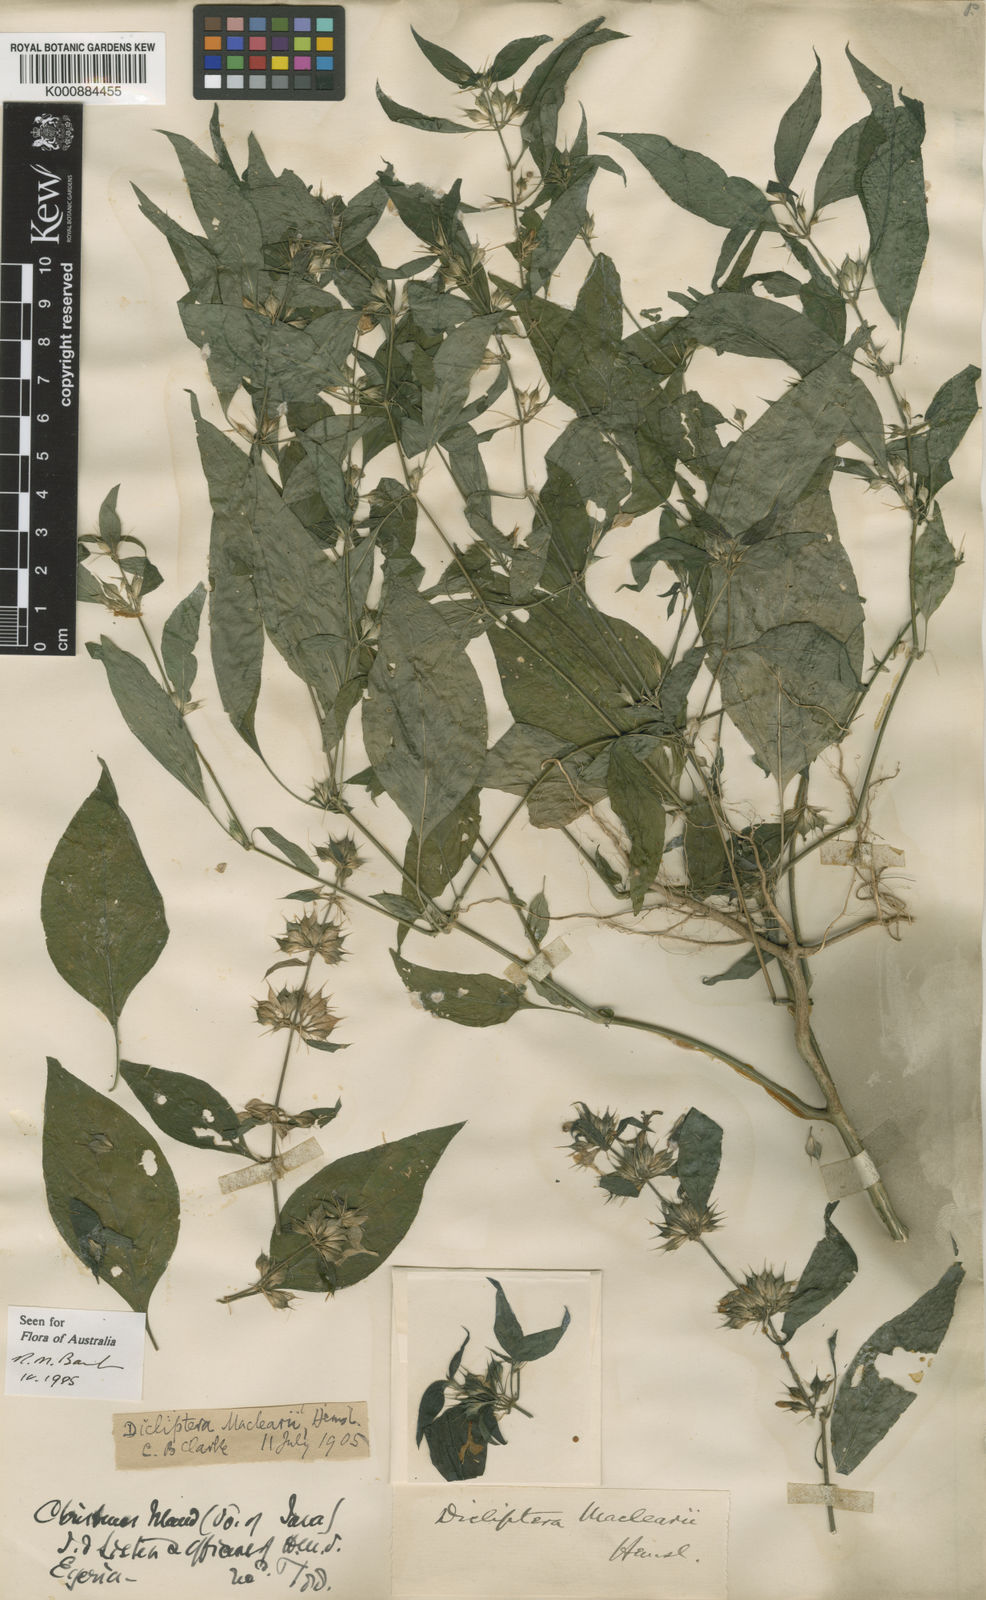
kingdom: Plantae
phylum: Tracheophyta
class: Magnoliopsida
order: Lamiales
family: Acanthaceae
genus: Dicliptera
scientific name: Dicliptera maclearii
